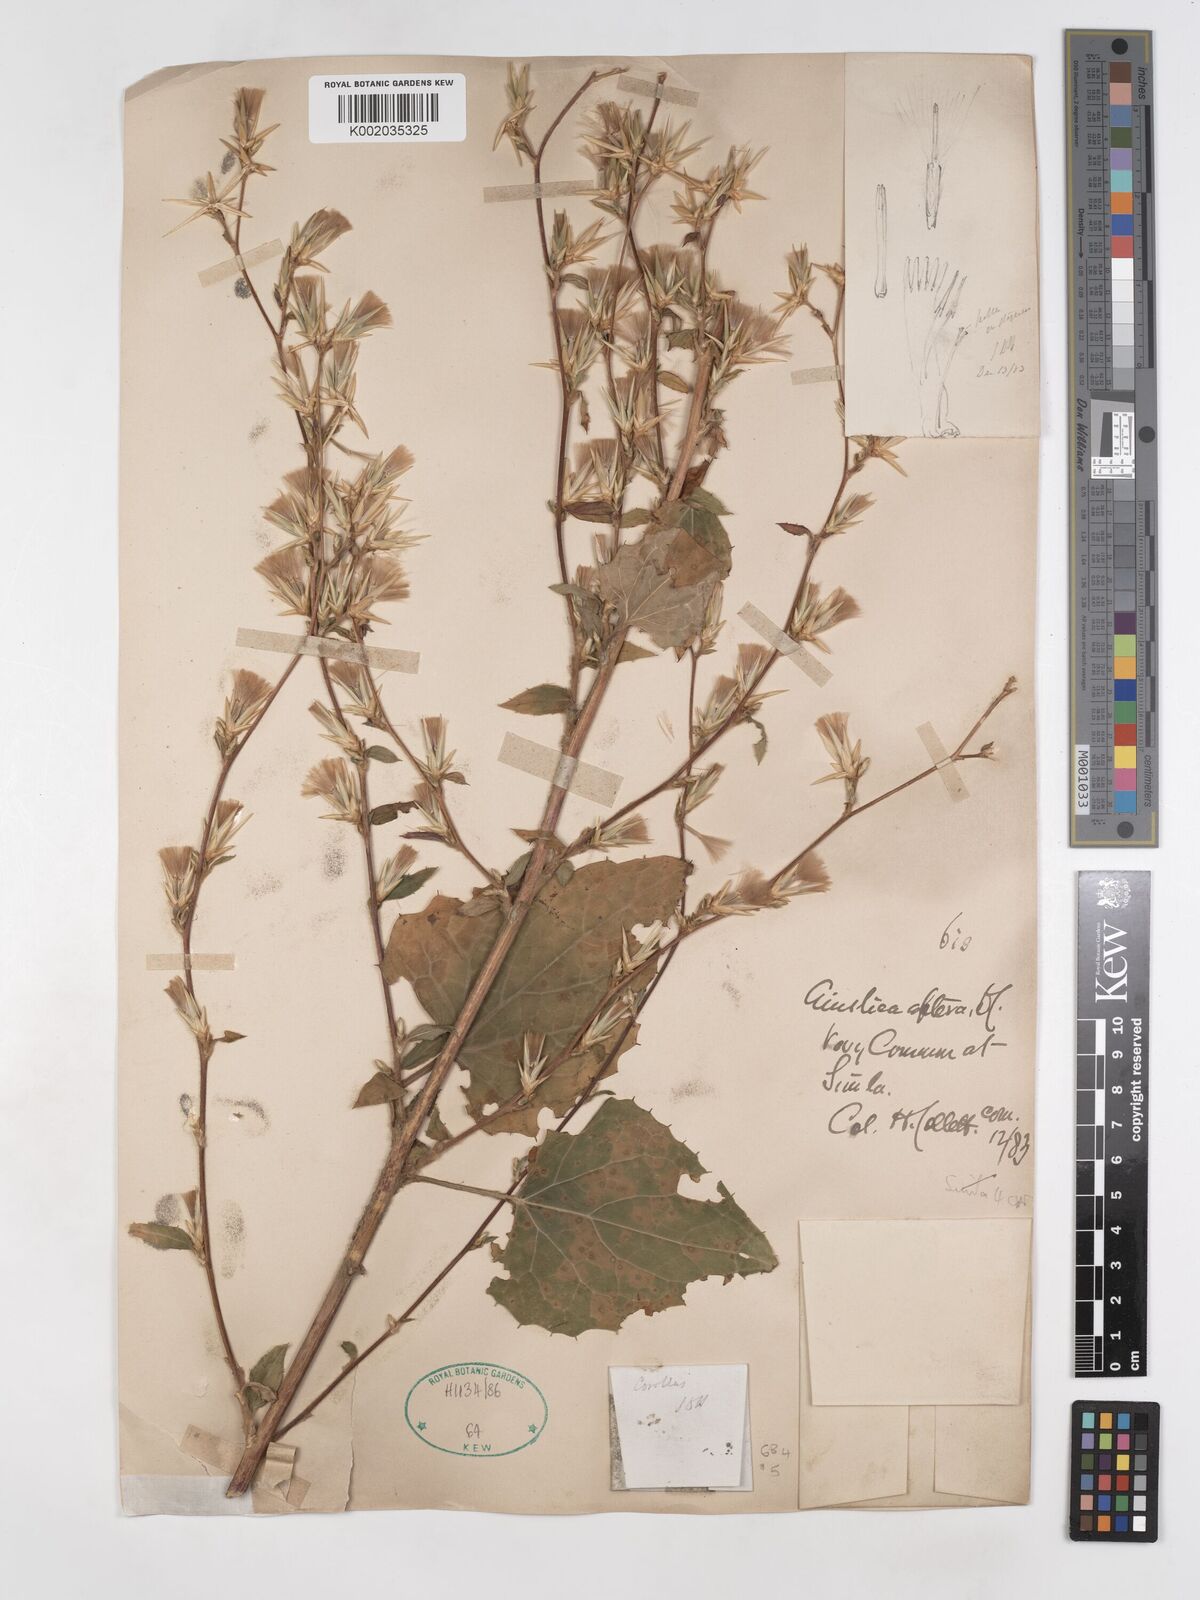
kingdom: Plantae
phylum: Tracheophyta
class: Magnoliopsida
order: Asterales
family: Asteraceae
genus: Ainsliaea
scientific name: Ainsliaea aptera
